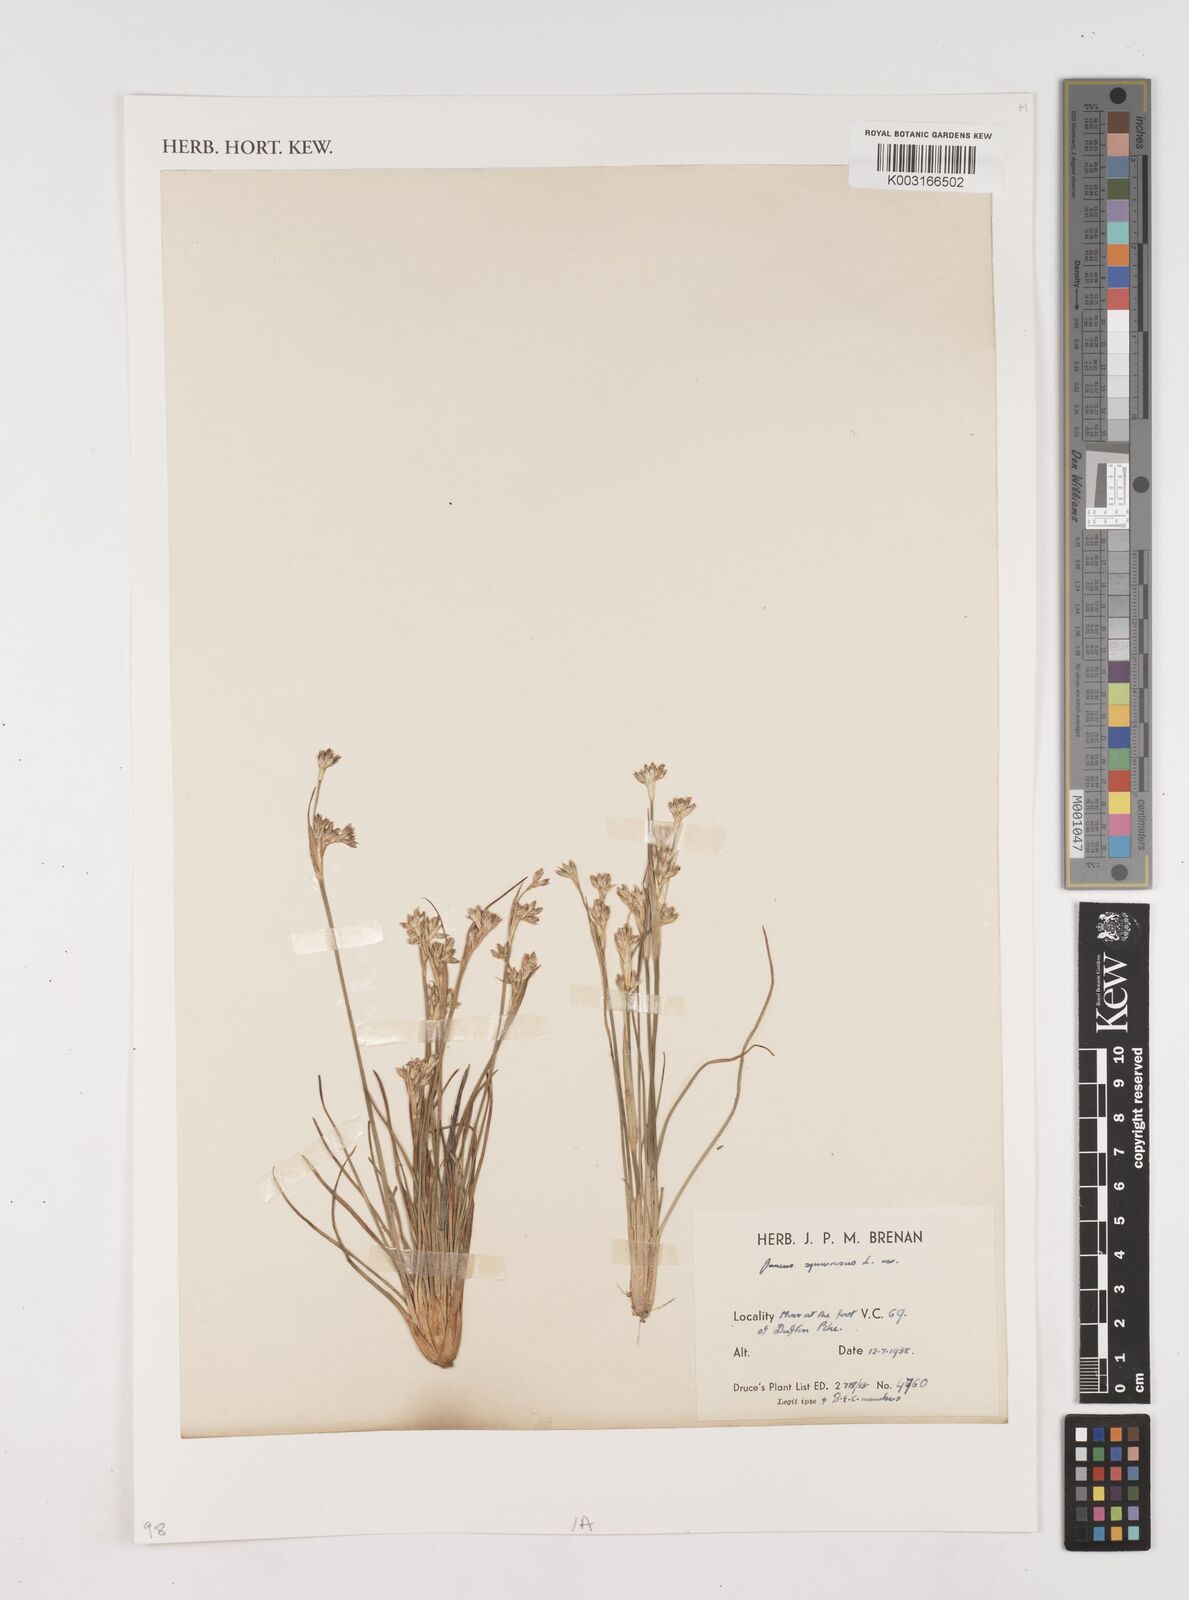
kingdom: Plantae
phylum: Tracheophyta
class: Liliopsida
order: Poales
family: Juncaceae
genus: Juncus
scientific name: Juncus squarrosus
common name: Heath rush
